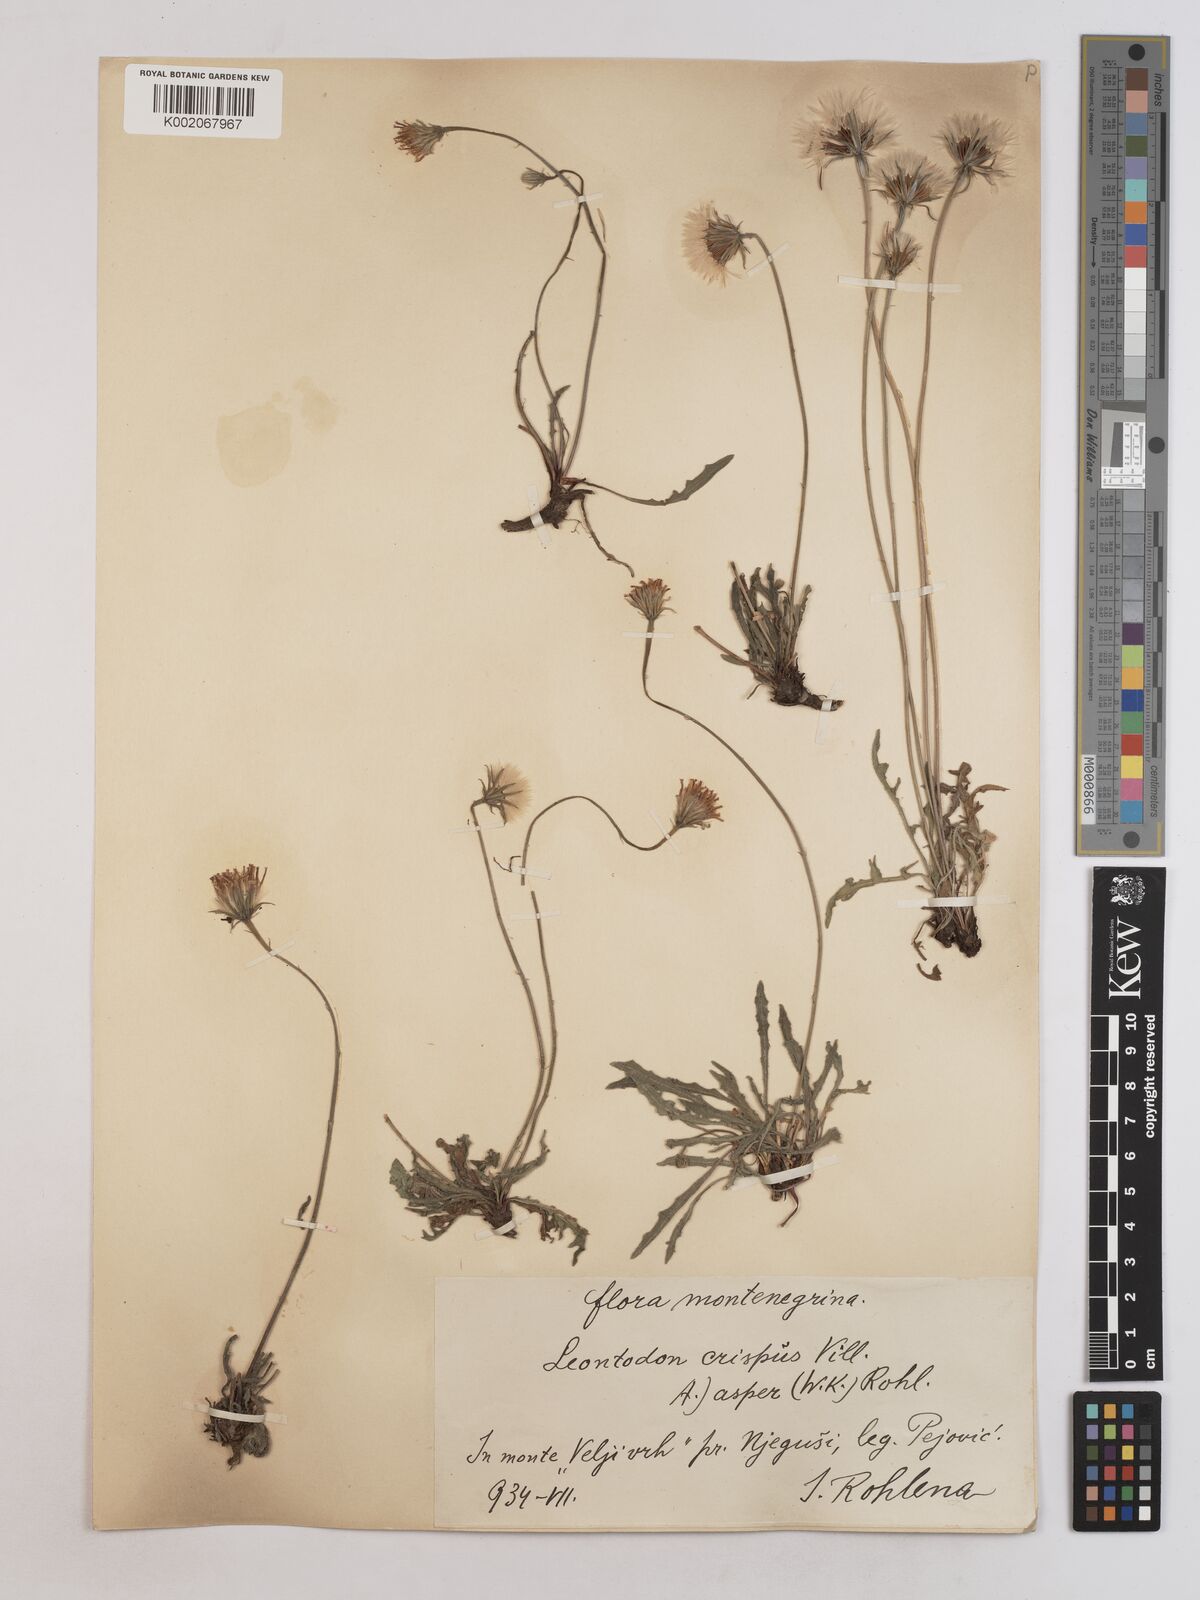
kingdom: Plantae
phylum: Tracheophyta
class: Magnoliopsida
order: Asterales
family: Asteraceae
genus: Leontodon
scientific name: Leontodon crispus
